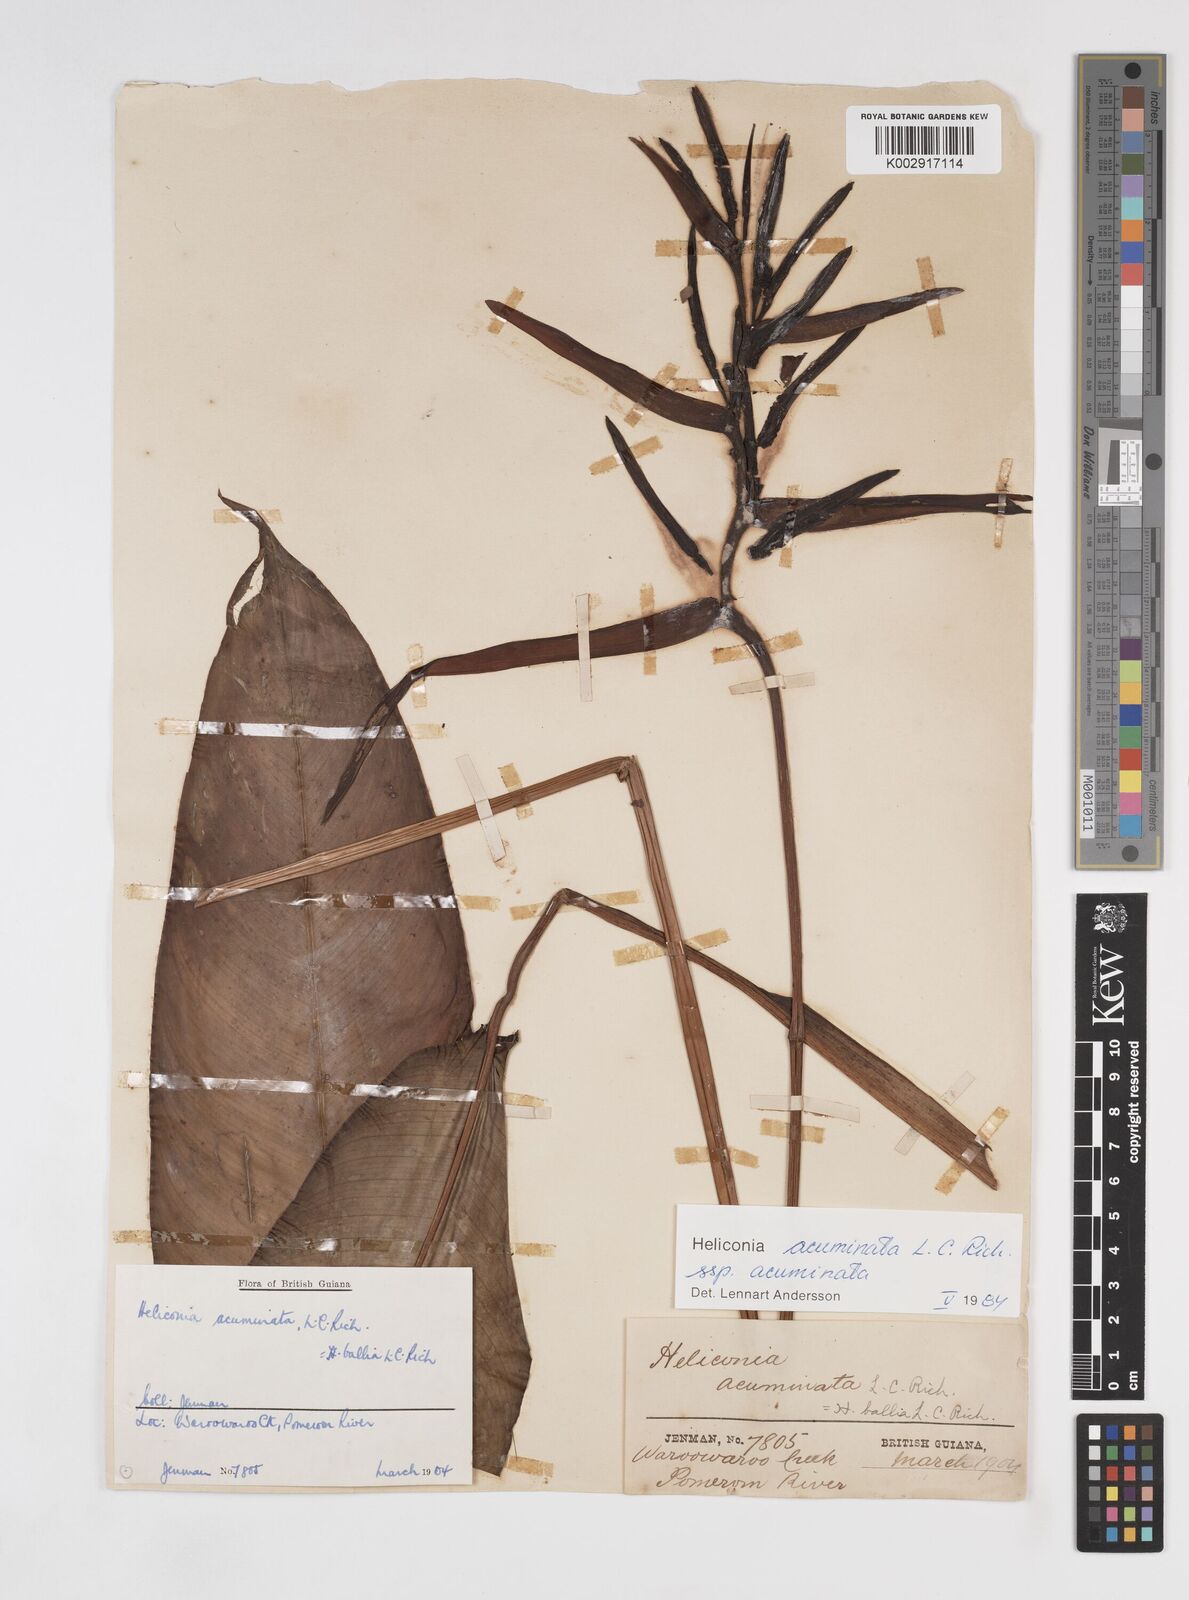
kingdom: Plantae
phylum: Tracheophyta
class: Liliopsida
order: Zingiberales
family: Heliconiaceae
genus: Heliconia
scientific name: Heliconia acuminata
